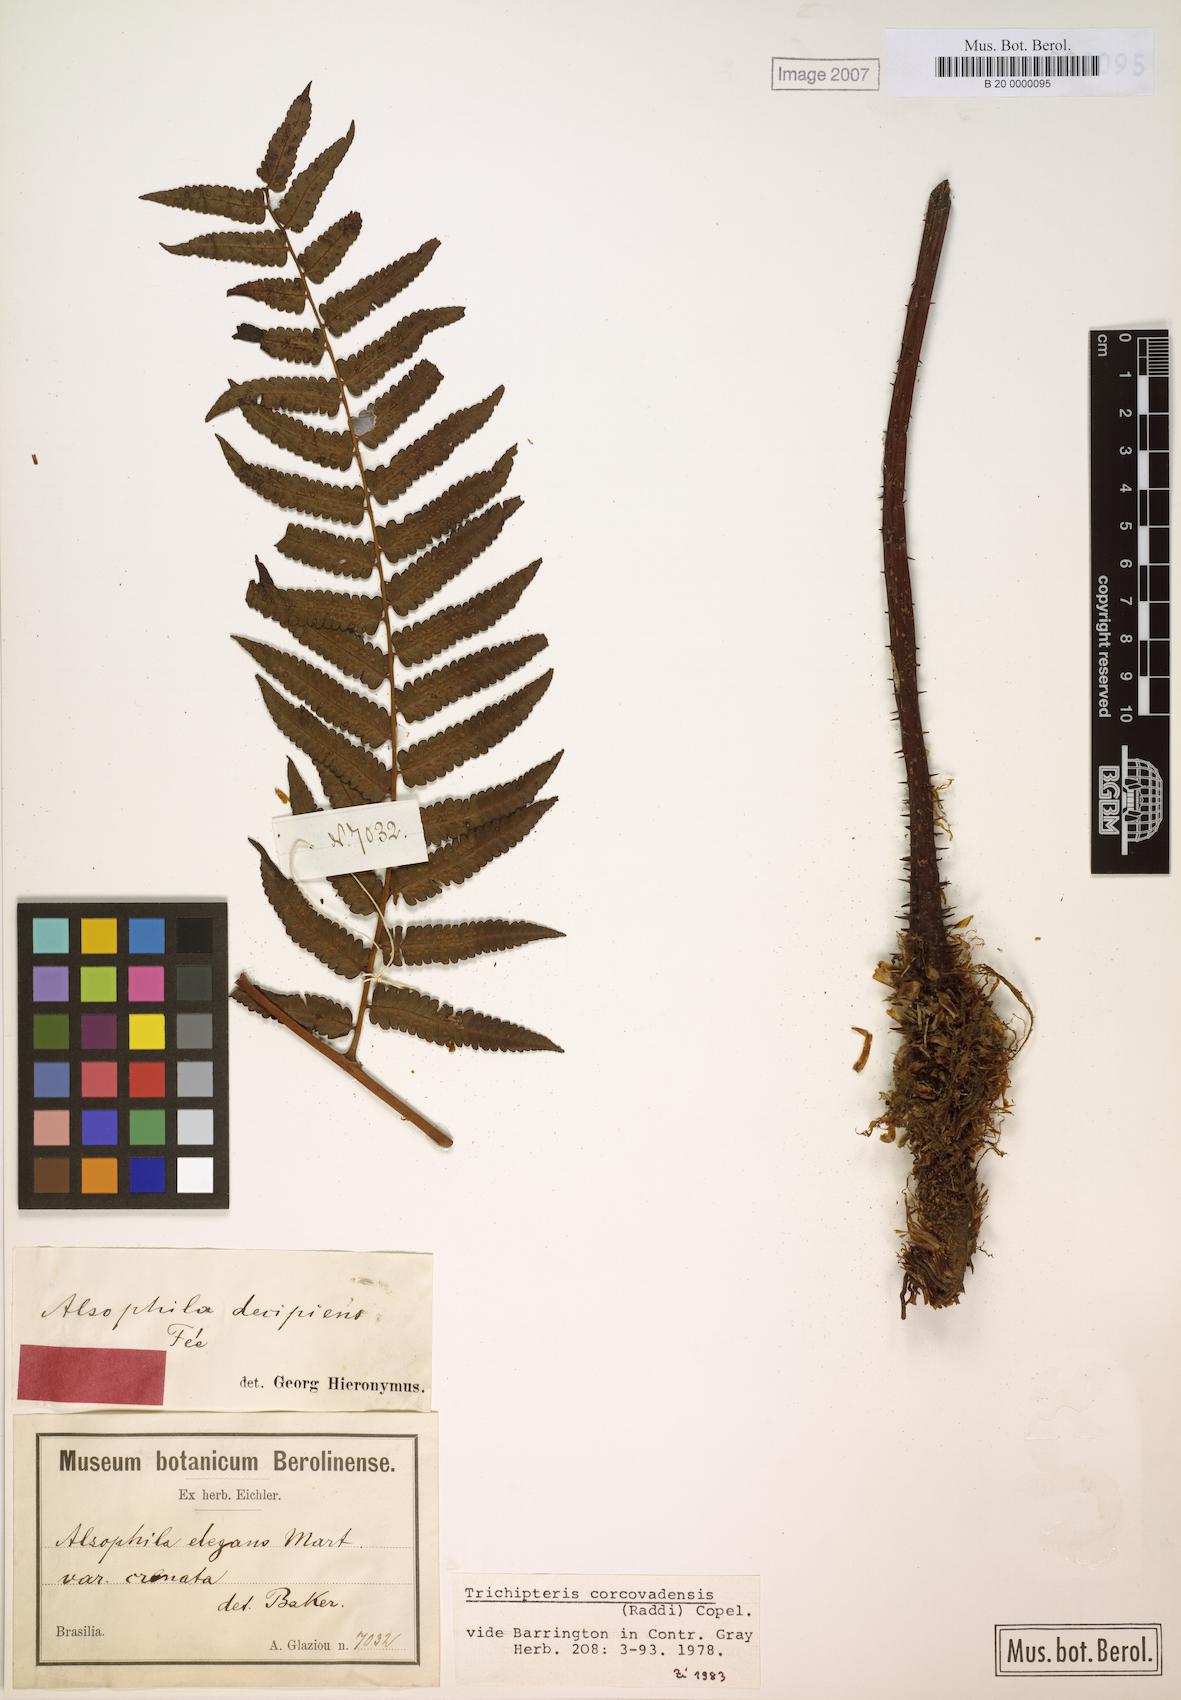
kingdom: Plantae
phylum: Tracheophyta
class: Polypodiopsida
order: Cyatheales
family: Cyatheaceae
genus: Cyathea
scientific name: Cyathea corcovadensis
